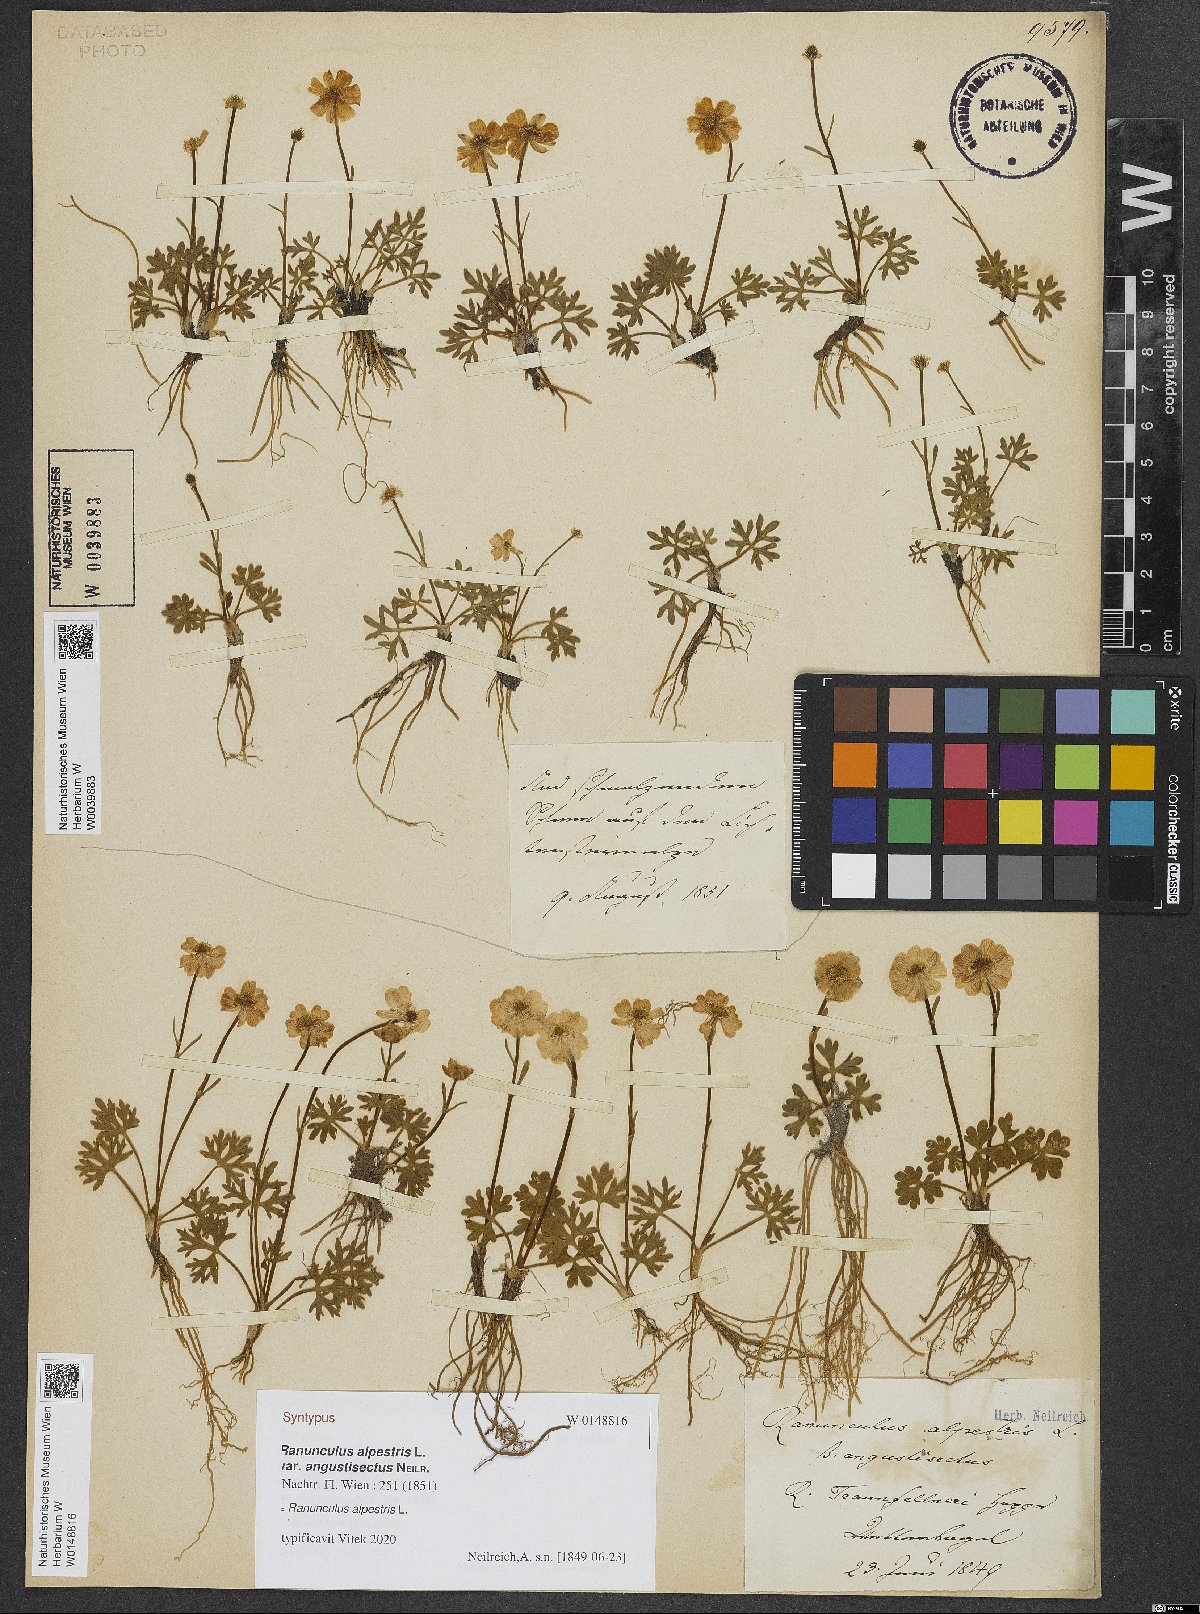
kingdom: Plantae
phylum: Tracheophyta
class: Magnoliopsida
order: Ranunculales
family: Ranunculaceae
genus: Ranunculus
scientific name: Ranunculus alpestris
